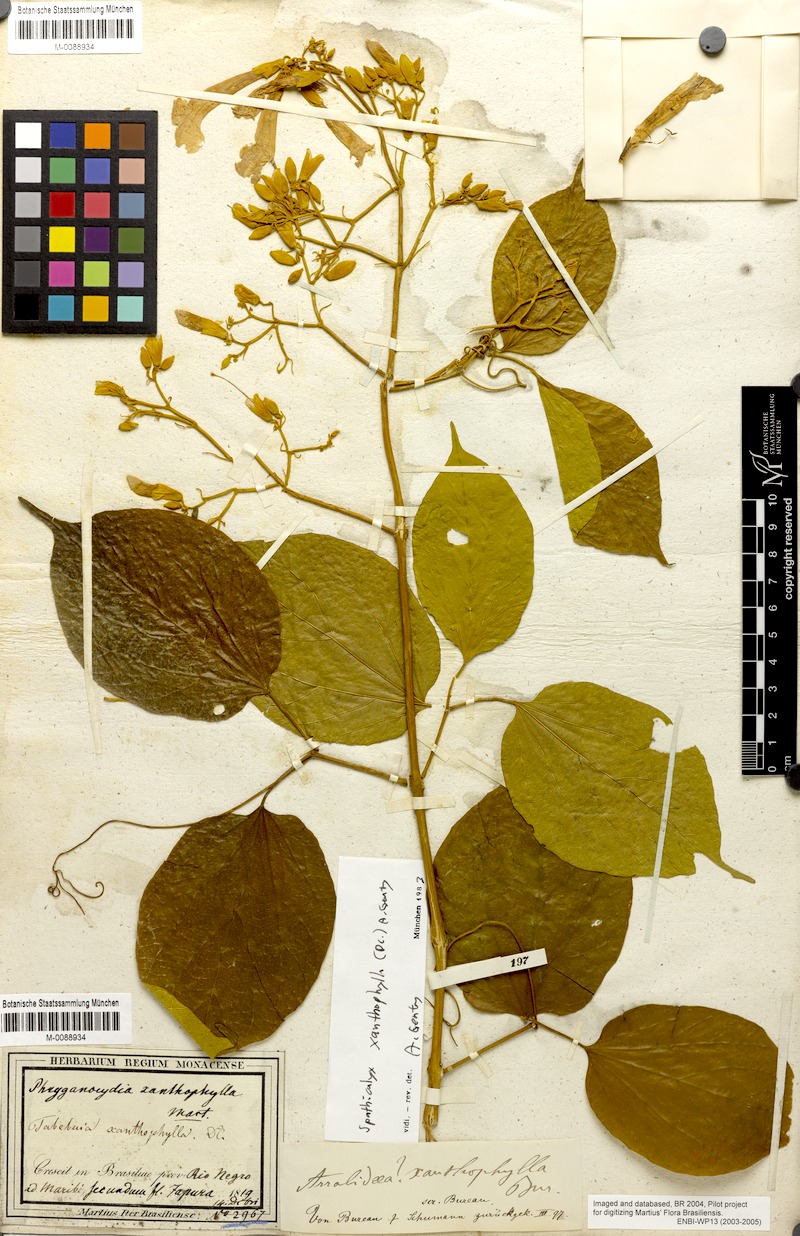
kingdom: Plantae
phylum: Tracheophyta
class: Magnoliopsida
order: Lamiales
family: Bignoniaceae
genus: Tanaecium
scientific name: Tanaecium xanthophyllum
